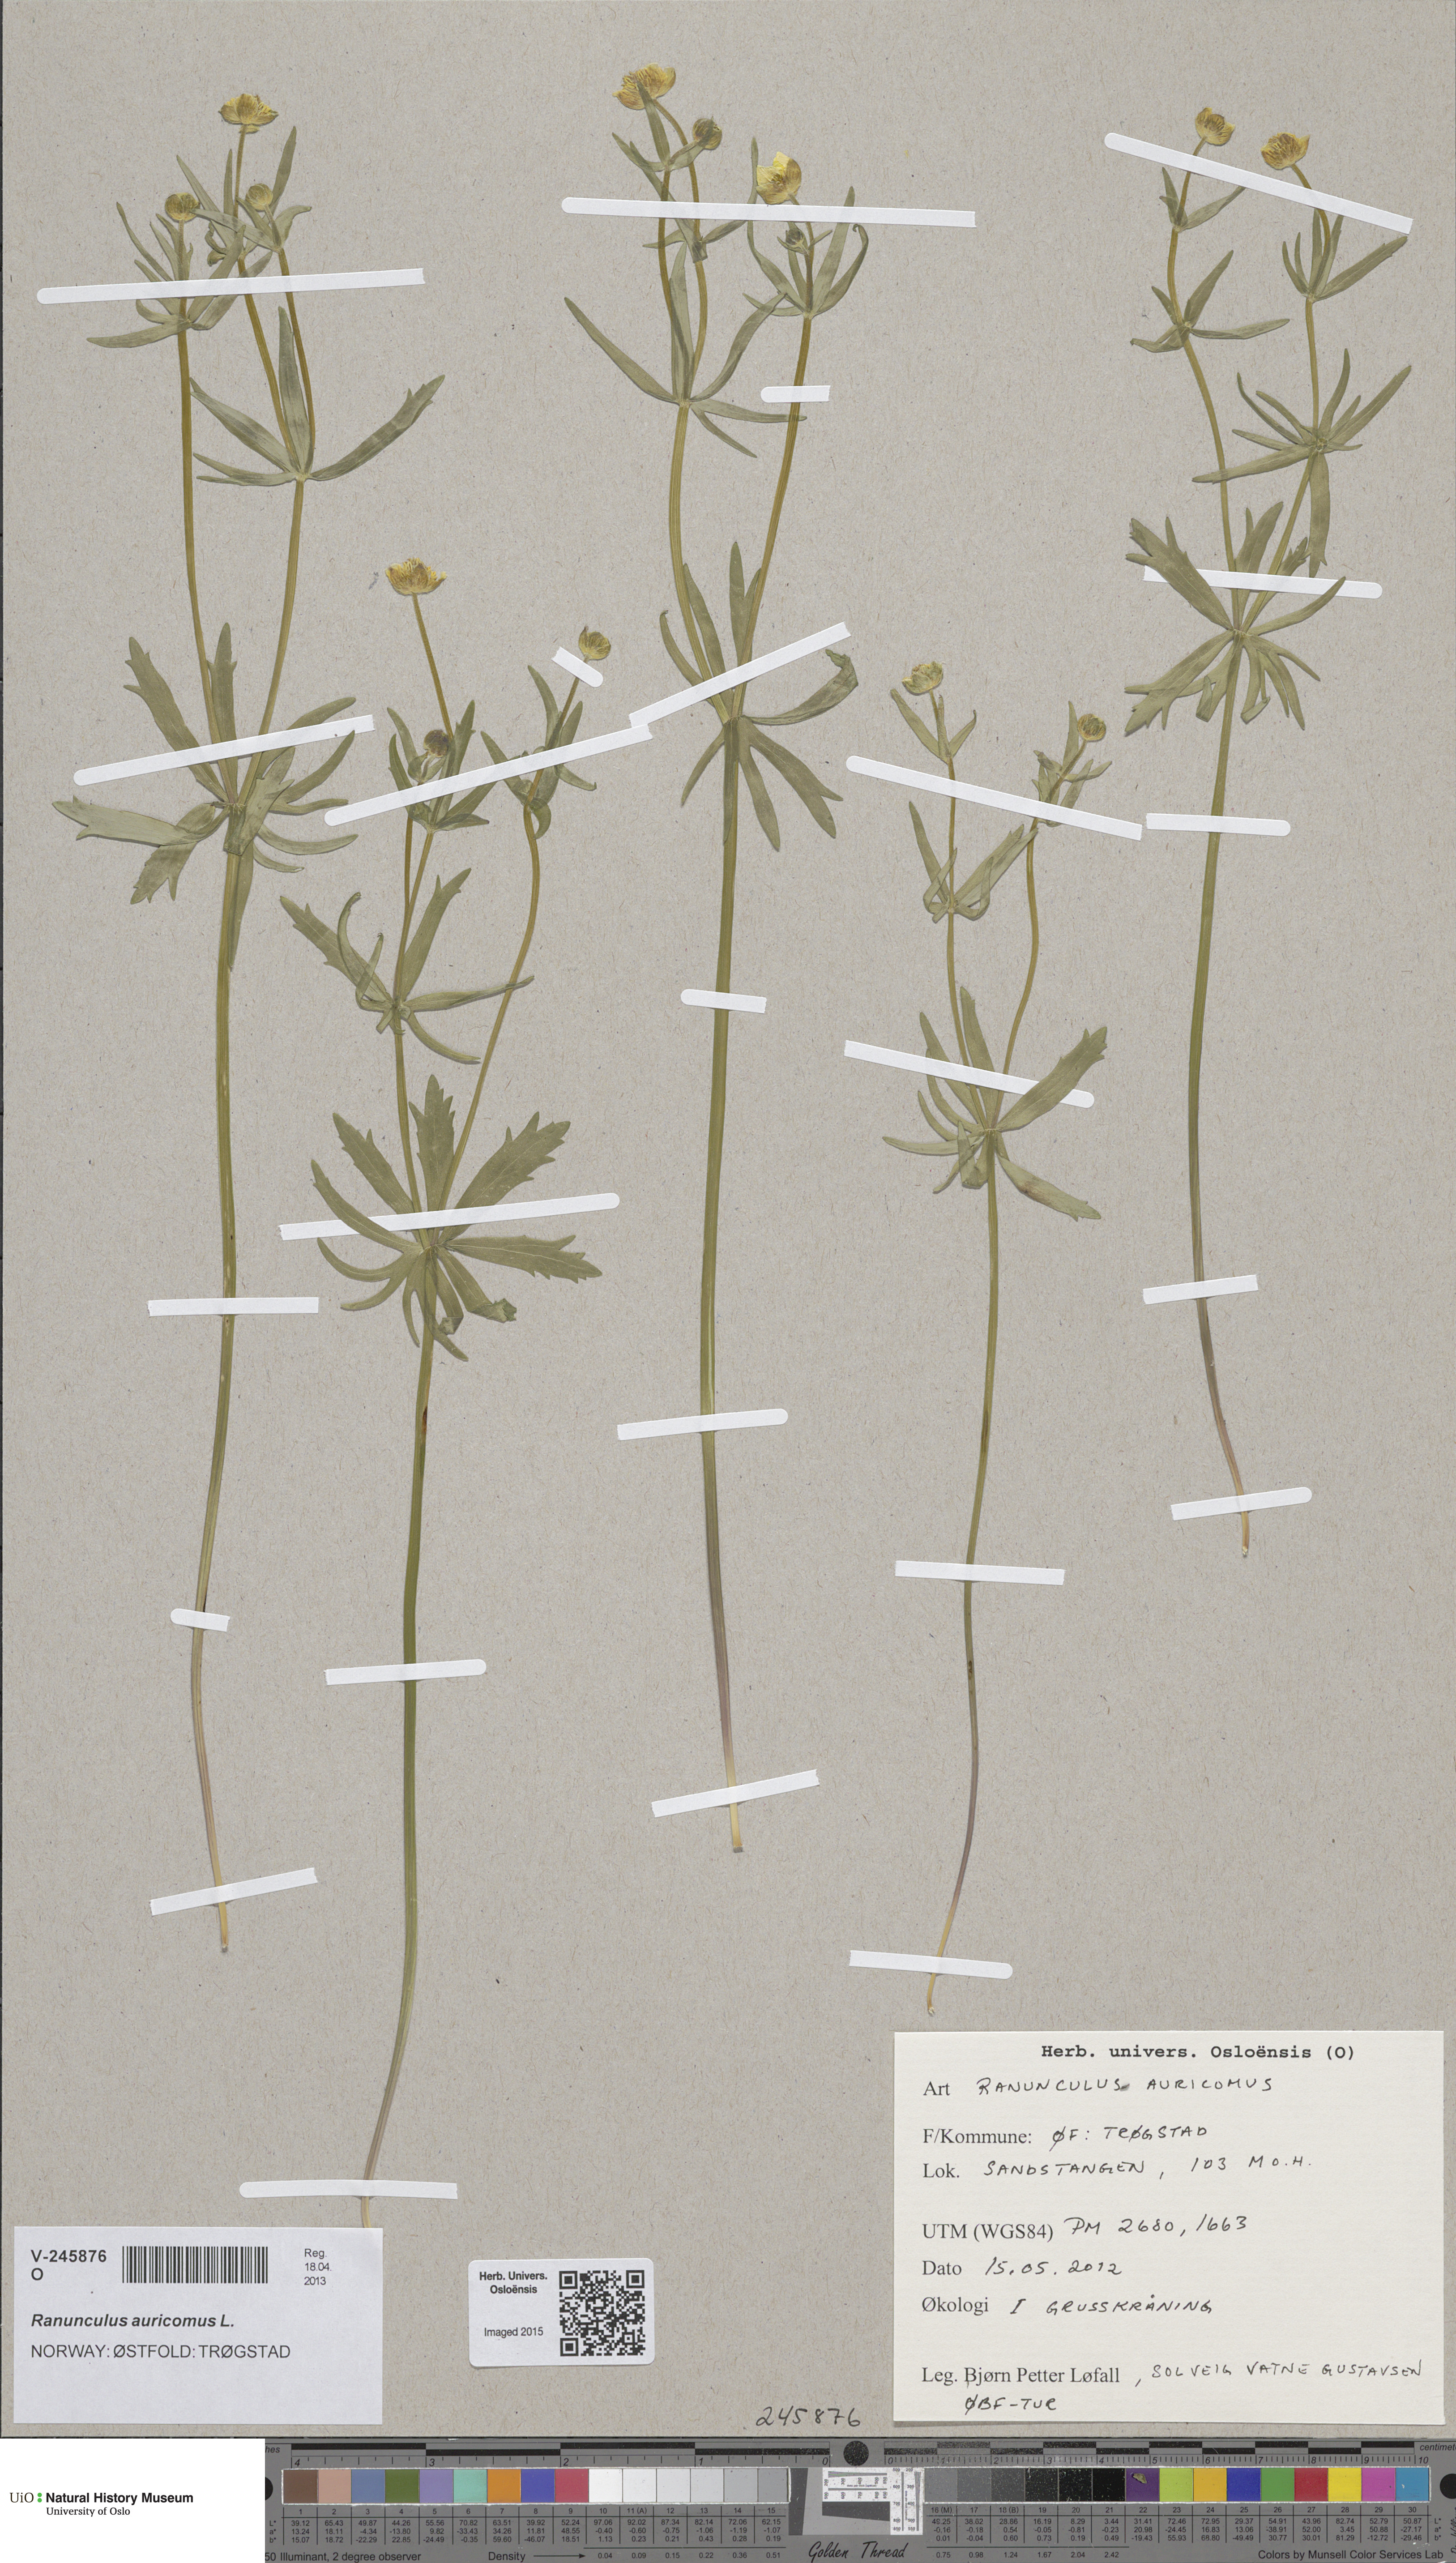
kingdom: Plantae
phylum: Tracheophyta
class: Magnoliopsida
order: Ranunculales
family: Ranunculaceae
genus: Ranunculus
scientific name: Ranunculus auricomus
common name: Goldilocks buttercup
